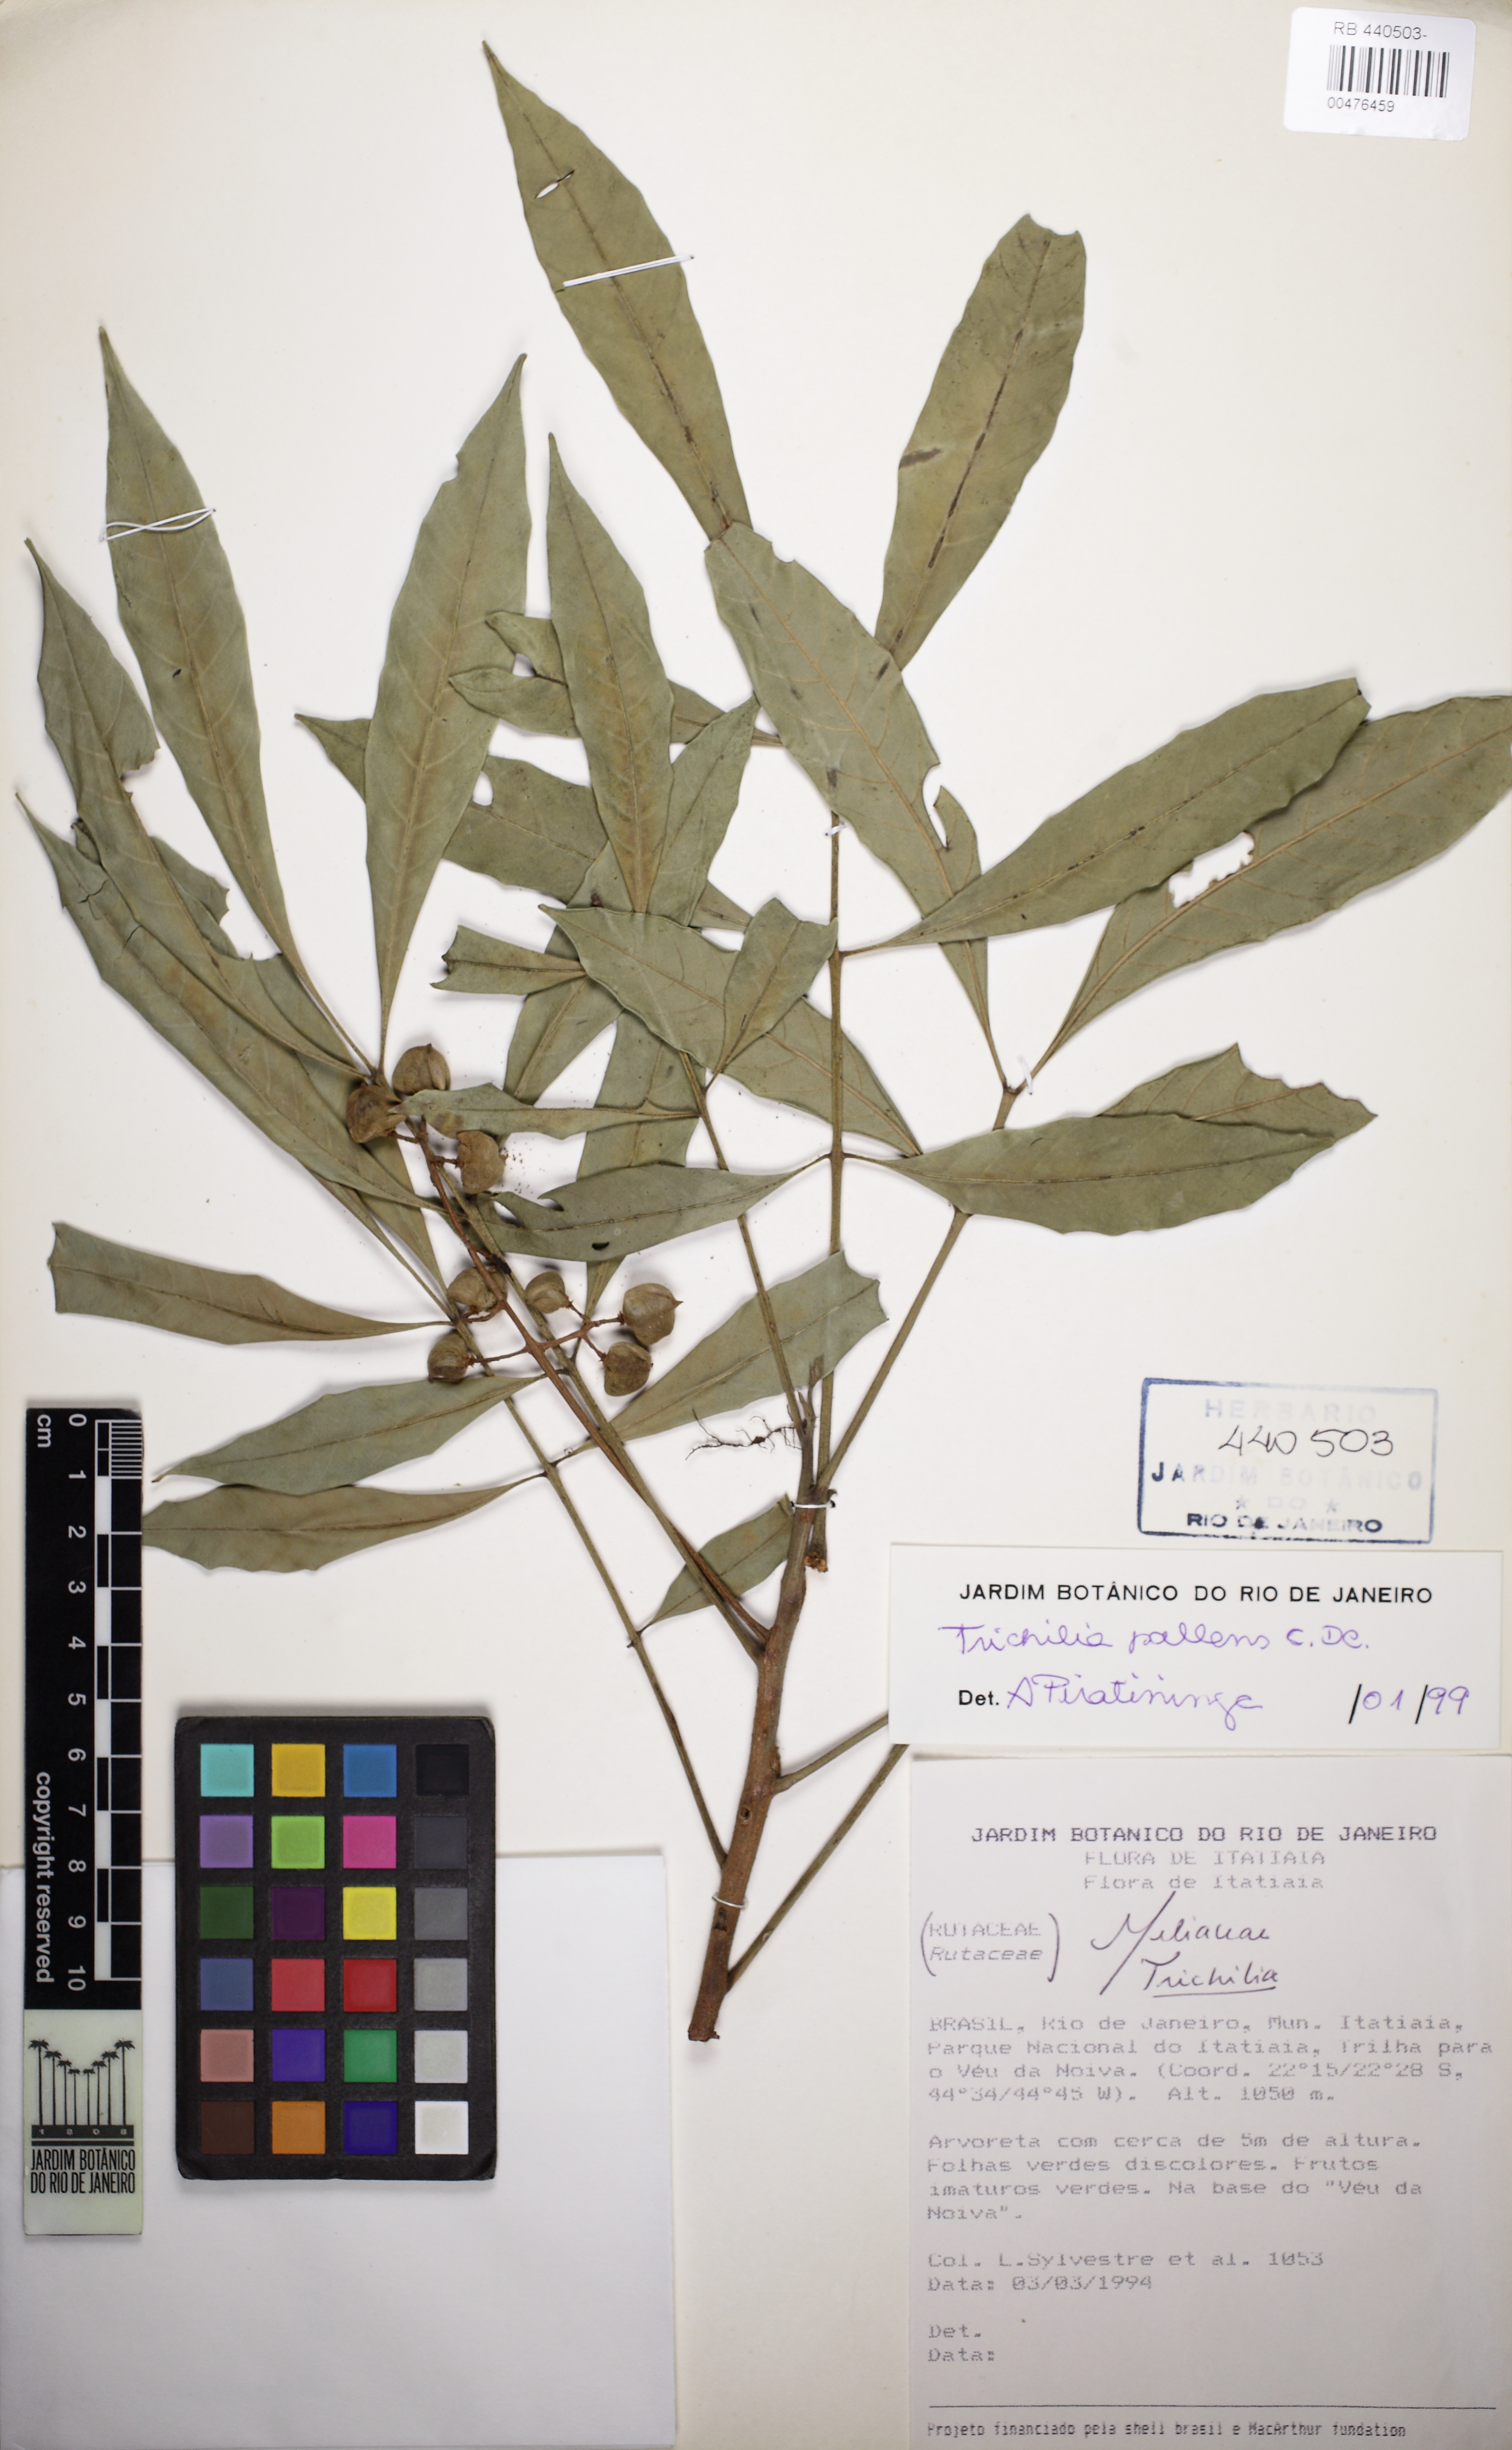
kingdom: Plantae
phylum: Tracheophyta
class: Magnoliopsida
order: Sapindales
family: Meliaceae
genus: Trichilia
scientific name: Trichilia pallens
